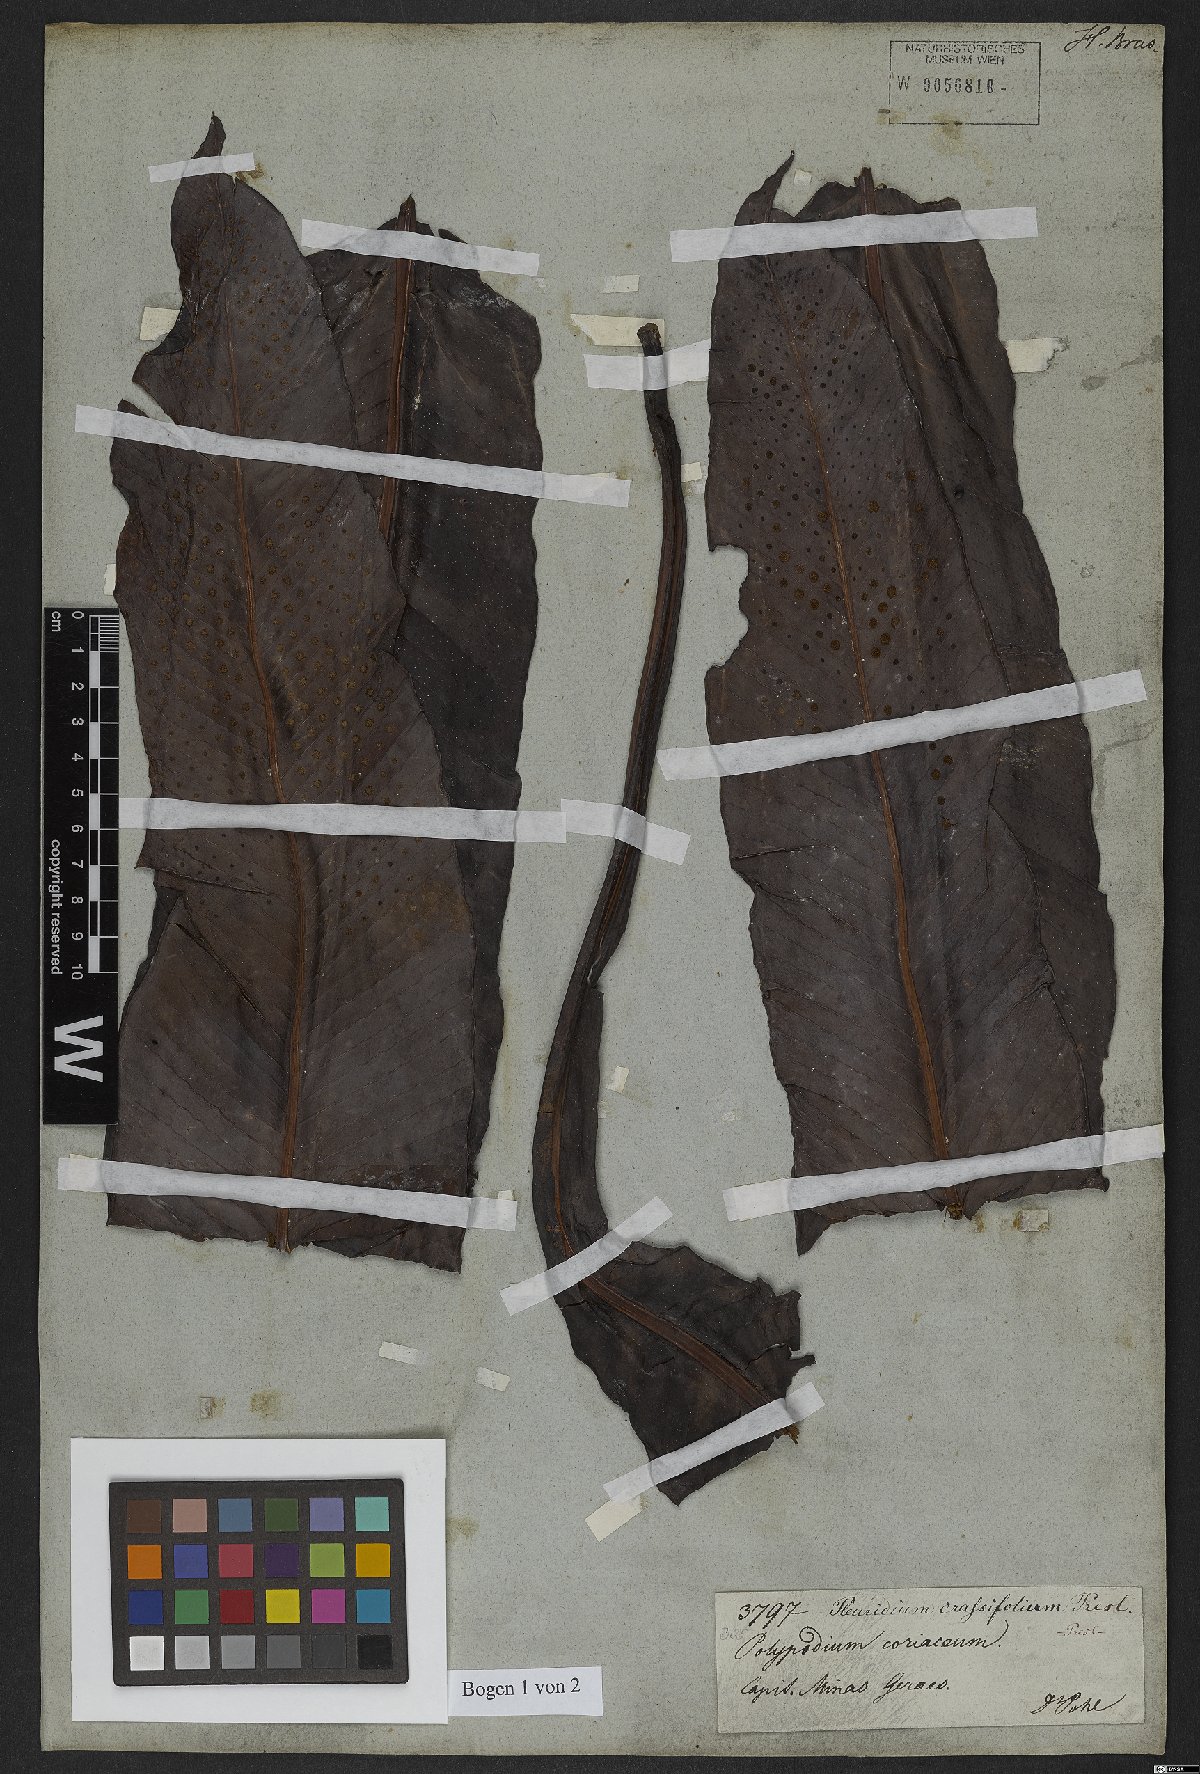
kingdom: Plantae
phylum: Tracheophyta
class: Polypodiopsida
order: Polypodiales
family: Polypodiaceae
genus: Niphidium
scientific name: Niphidium crassifolium
